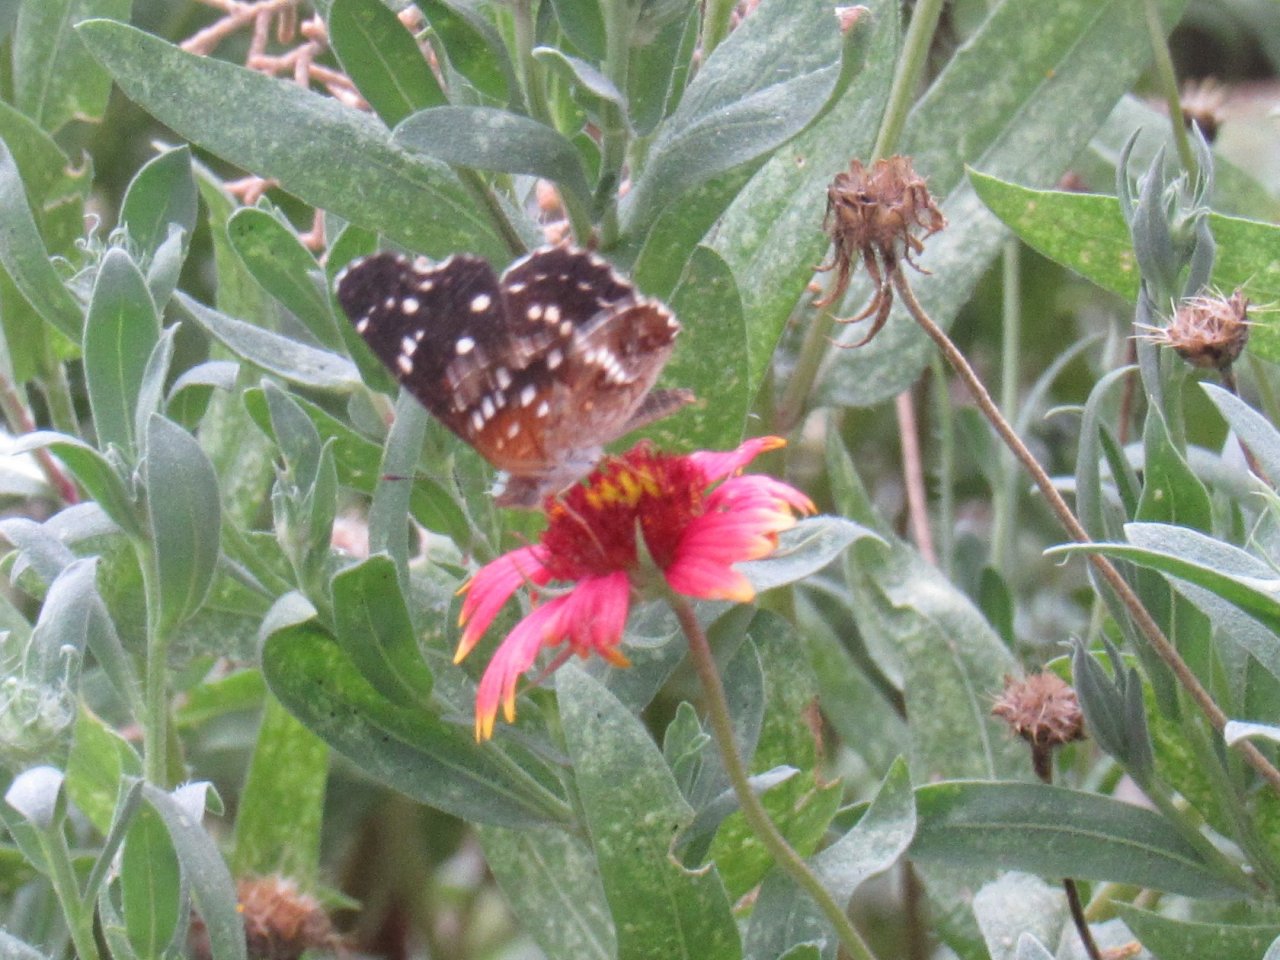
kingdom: Animalia
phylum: Arthropoda
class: Insecta
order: Lepidoptera
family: Nymphalidae
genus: Anthanassa
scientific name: Anthanassa texana
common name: Texan Crescent
